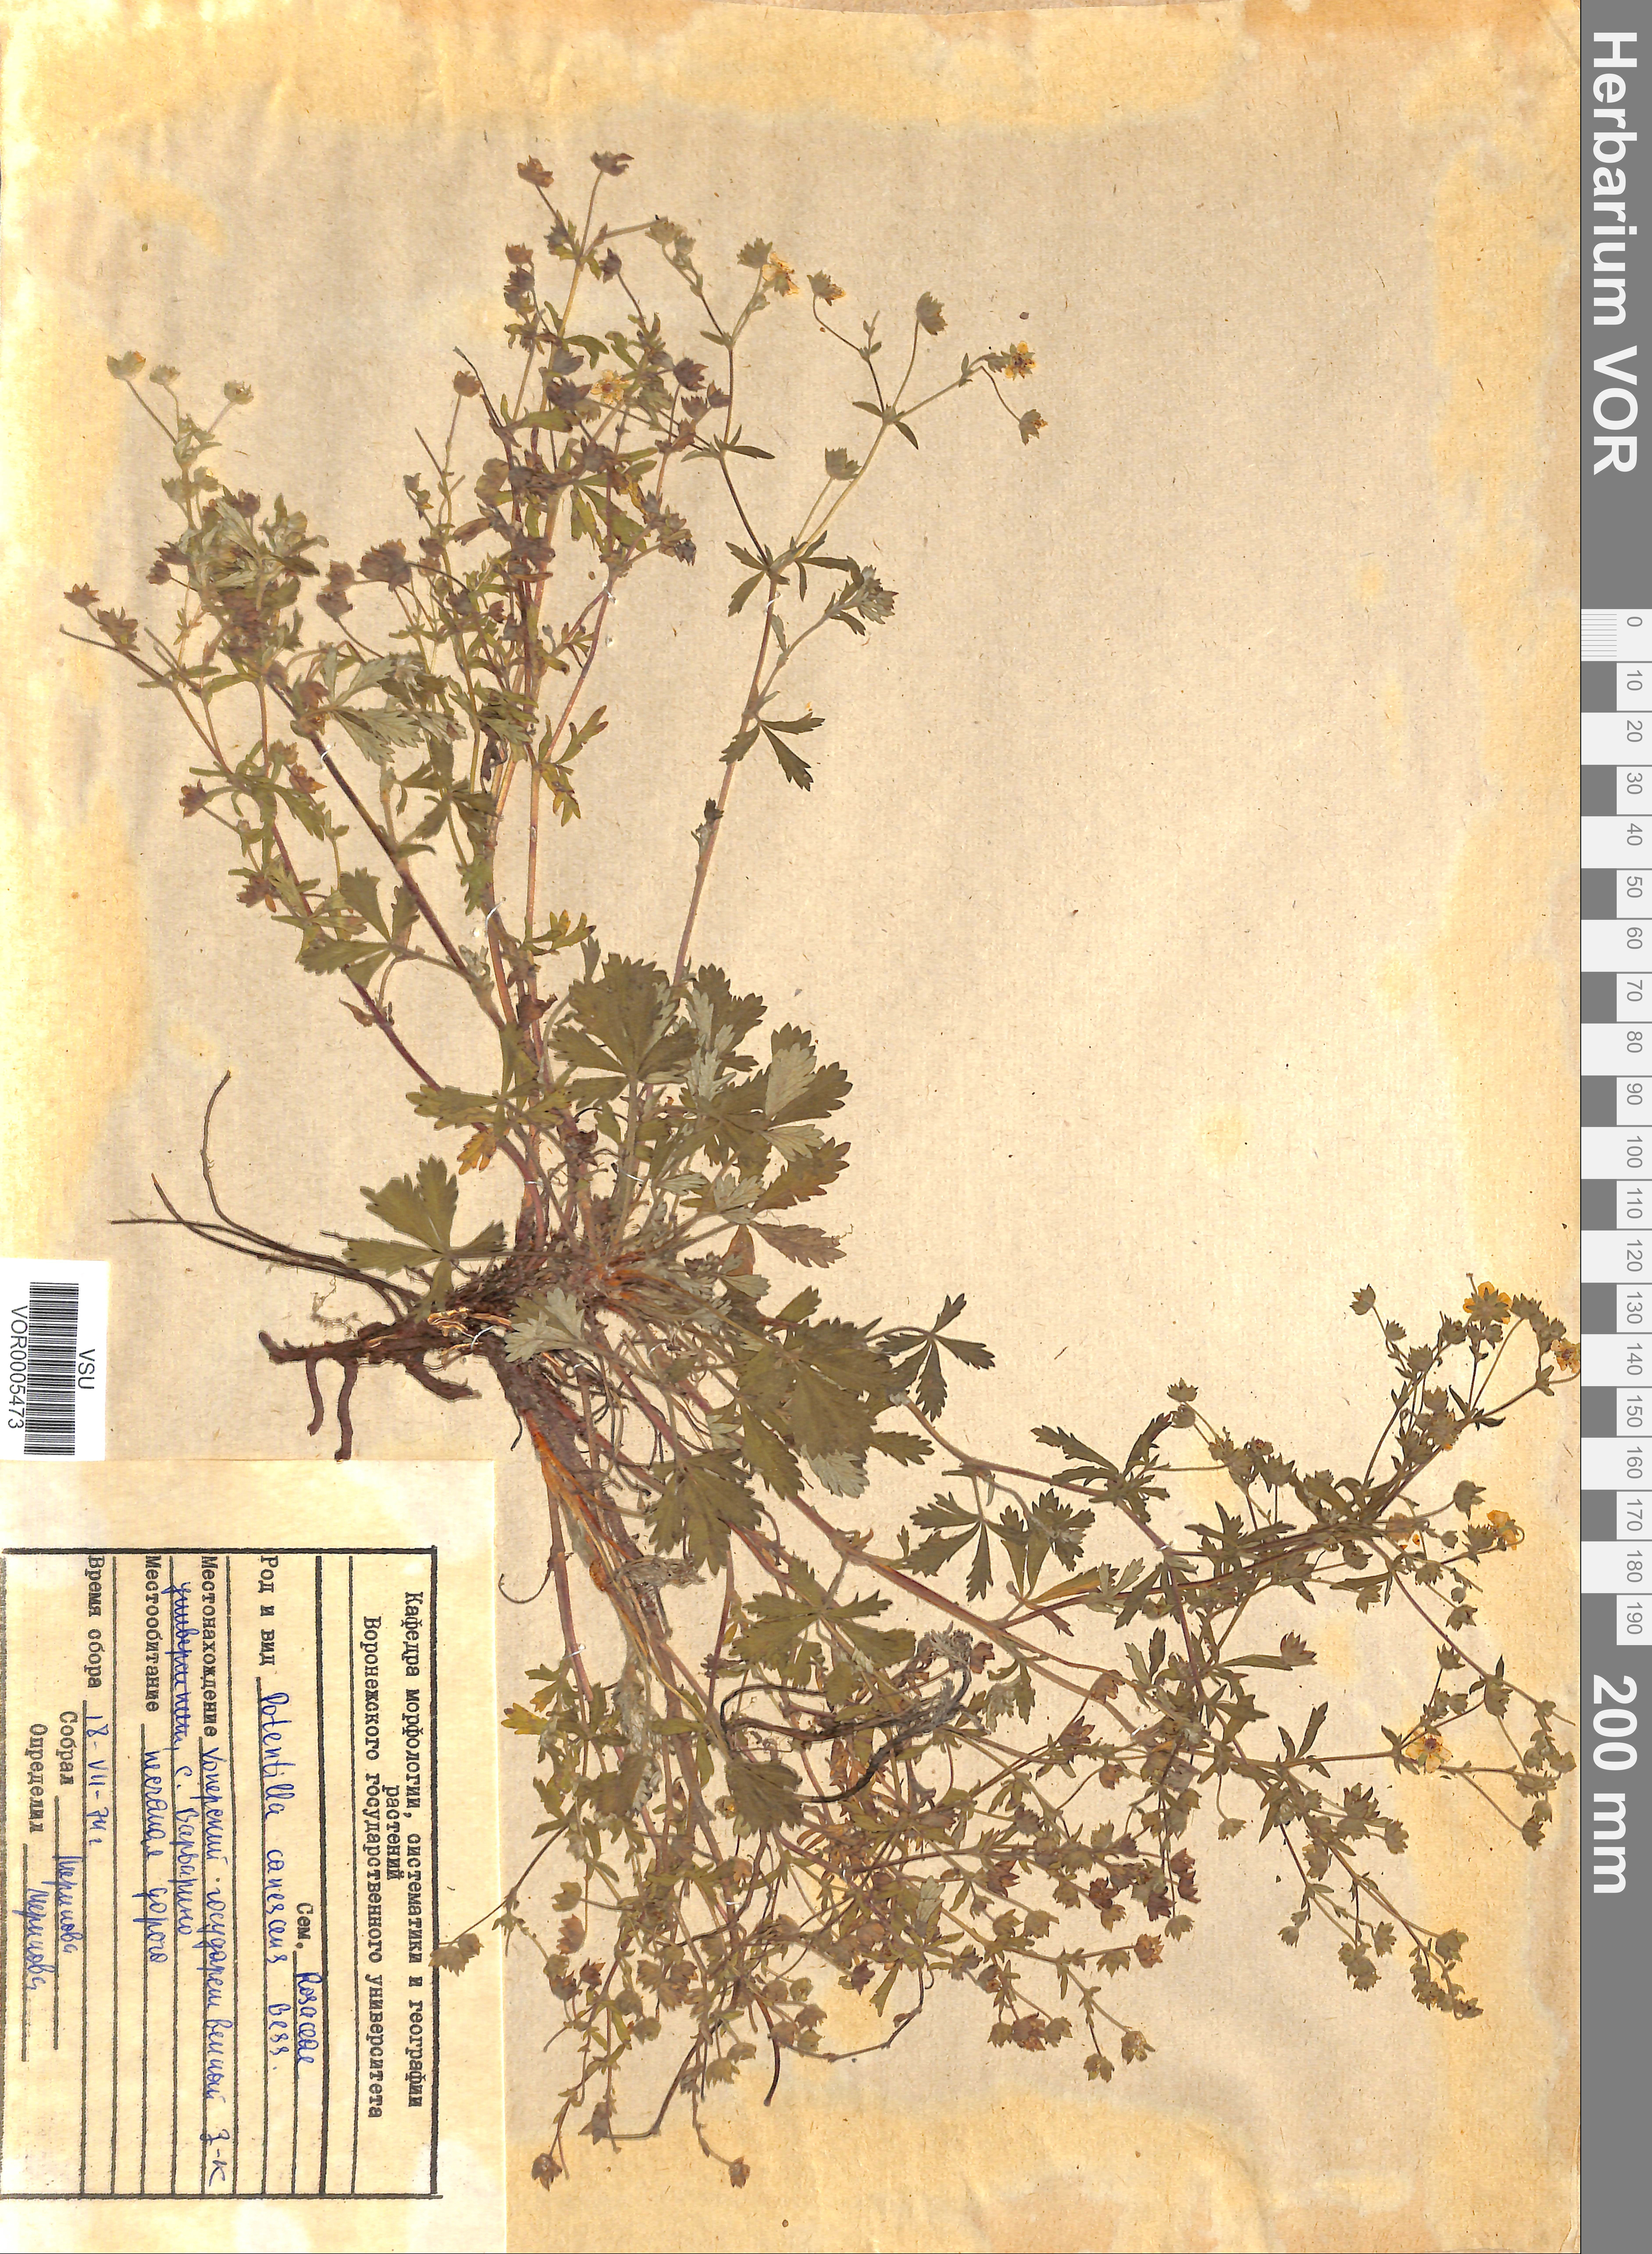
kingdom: Plantae
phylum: Tracheophyta
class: Magnoliopsida
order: Rosales
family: Rosaceae
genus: Potentilla
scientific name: Potentilla inclinata
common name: Grey cinquefoil
